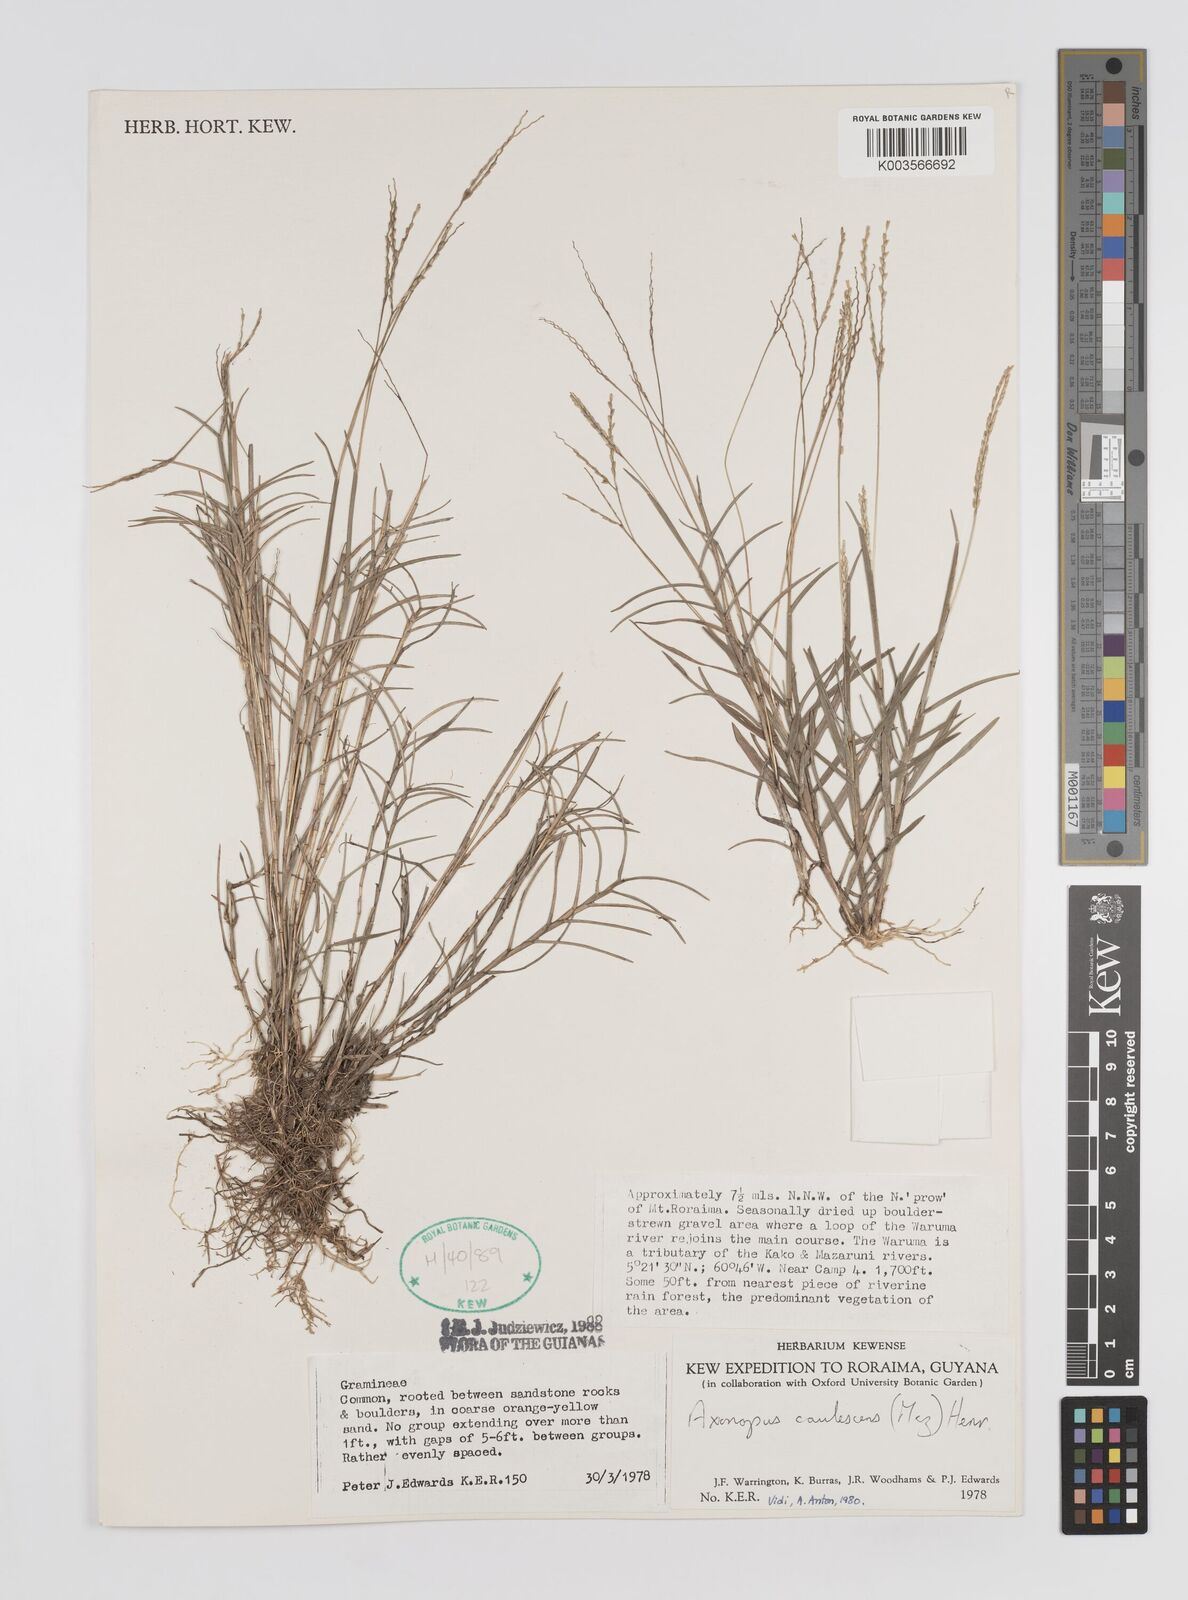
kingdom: Plantae
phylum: Tracheophyta
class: Liliopsida
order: Poales
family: Poaceae
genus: Axonopus
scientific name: Axonopus caulescens
